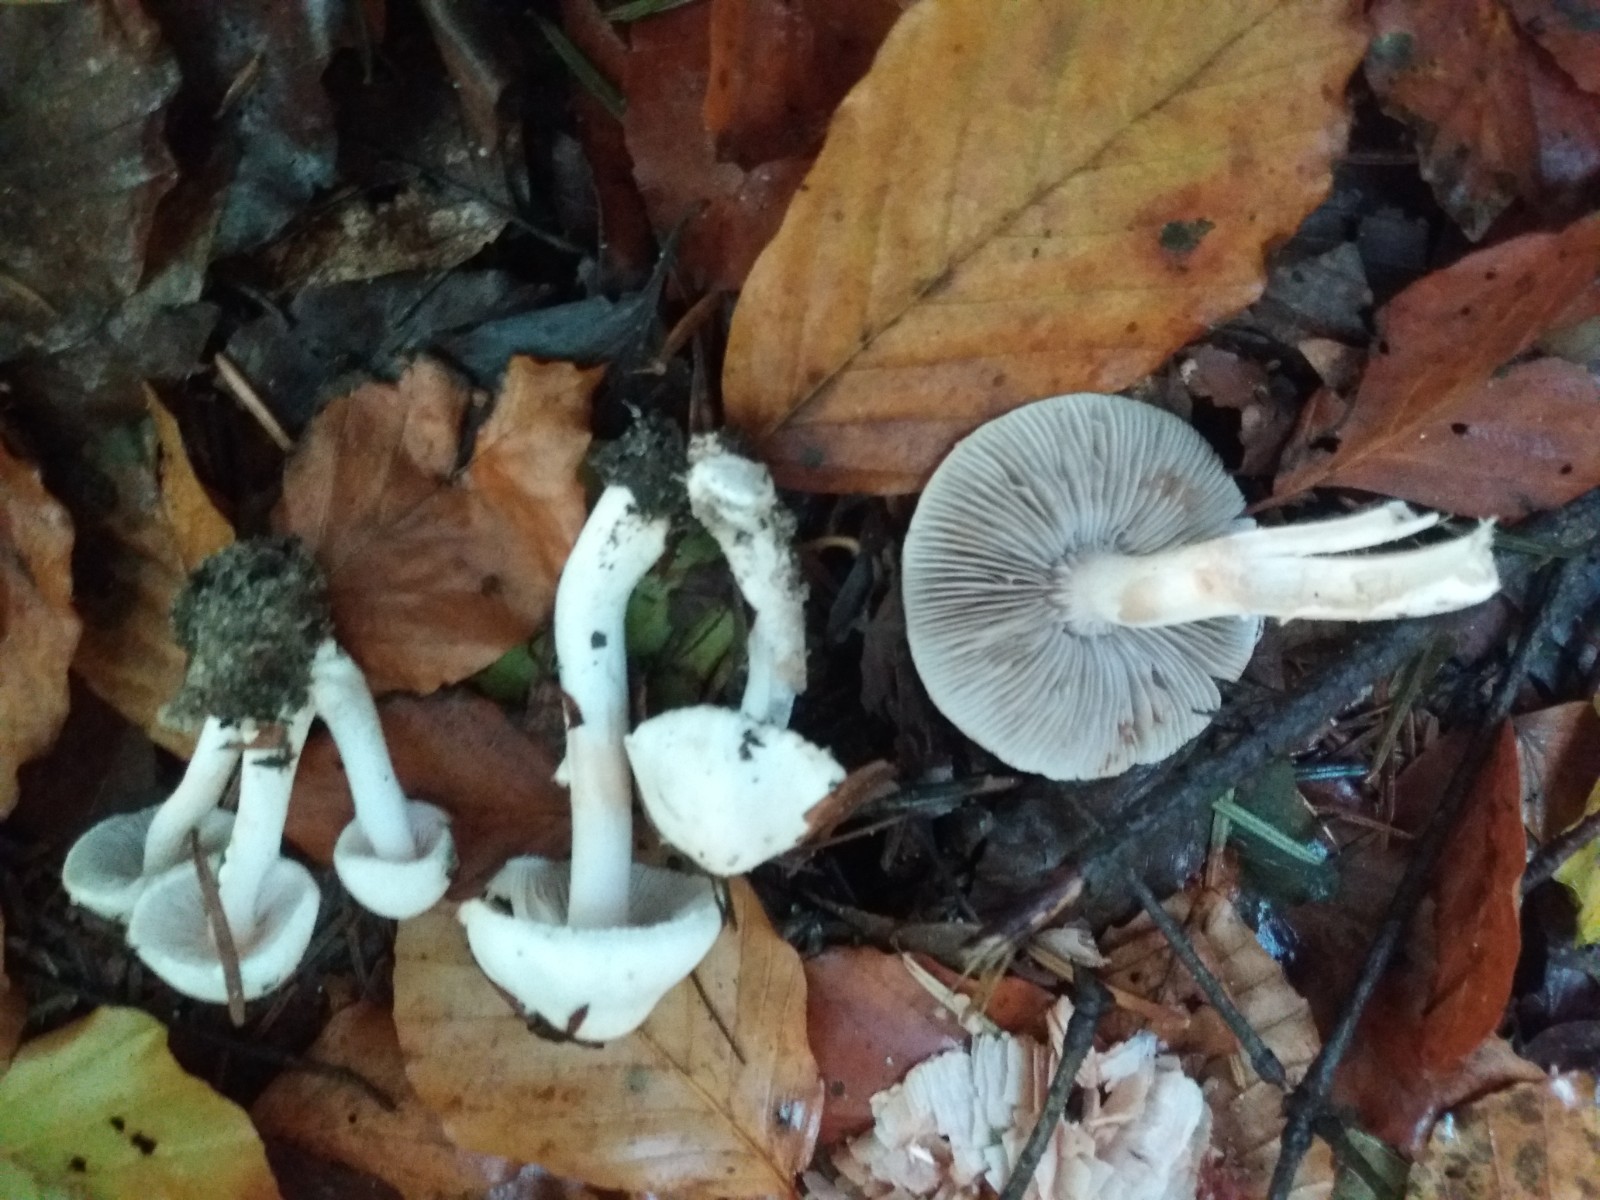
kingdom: Fungi
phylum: Basidiomycota
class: Agaricomycetes
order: Agaricales
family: Inocybaceae
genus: Inocybe
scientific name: Inocybe
